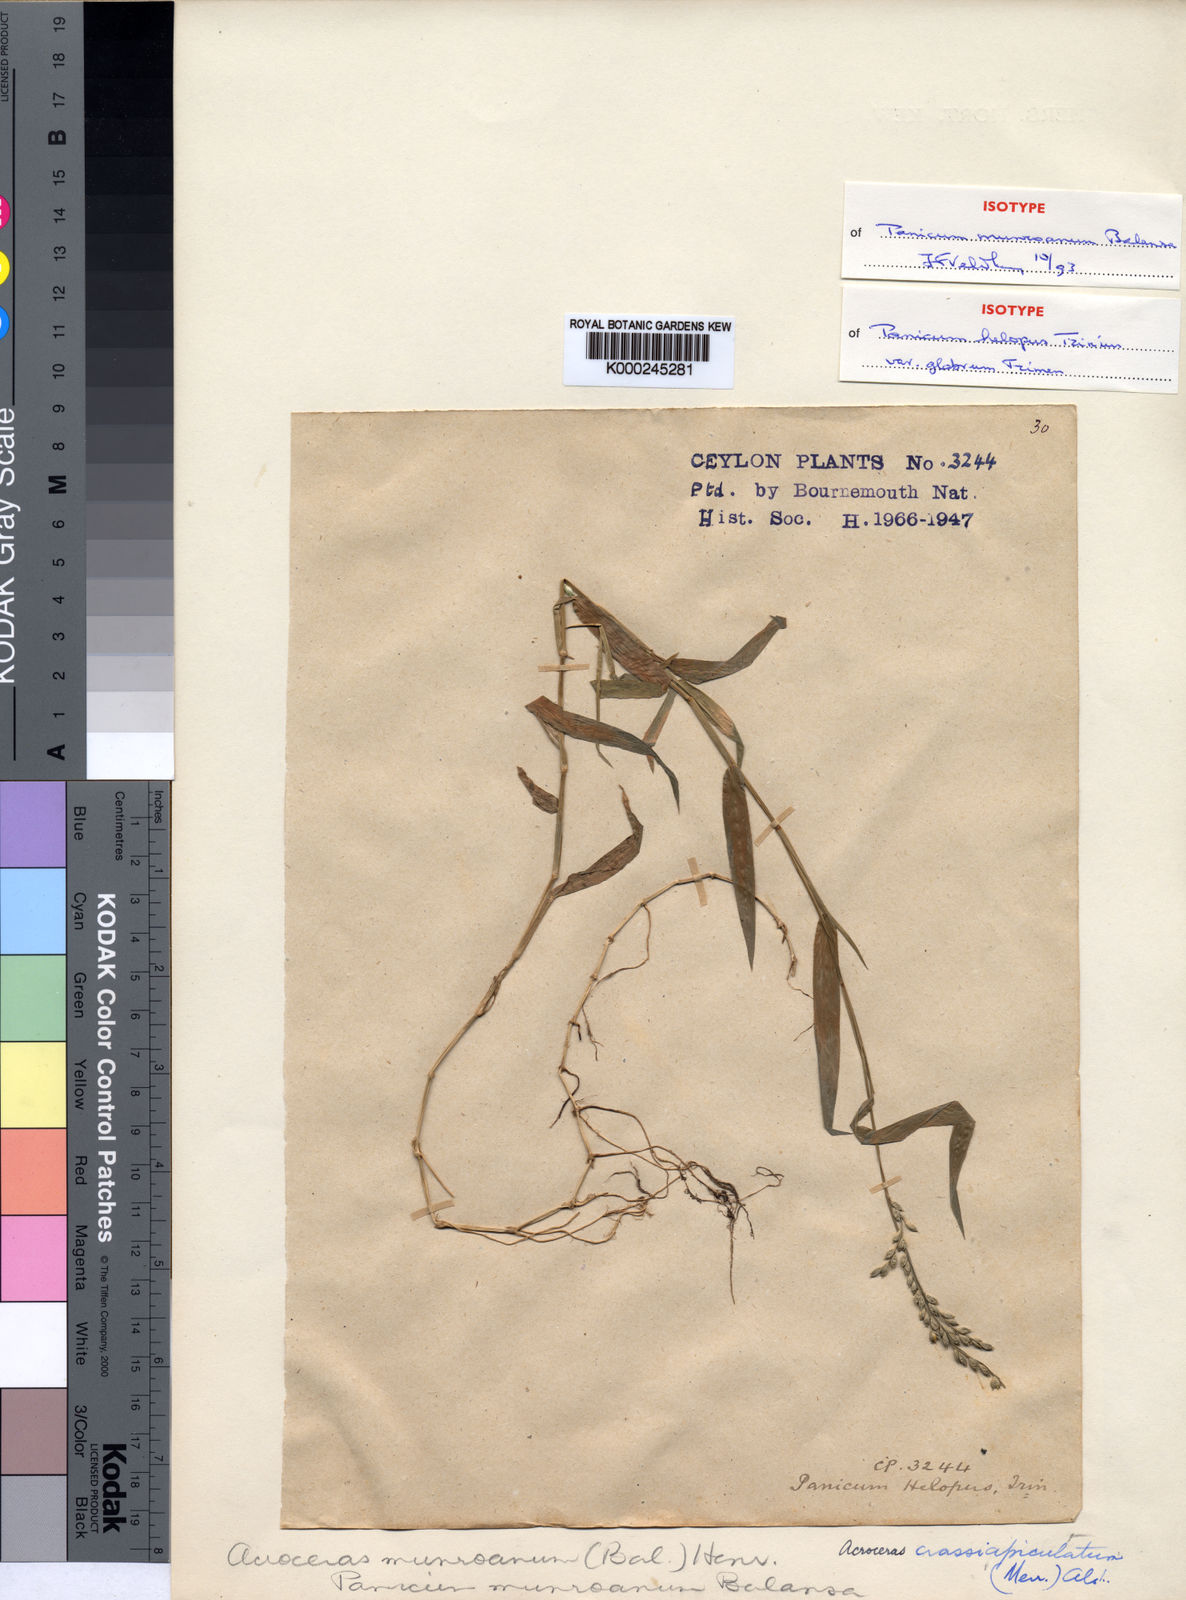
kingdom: Plantae
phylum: Tracheophyta
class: Liliopsida
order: Poales
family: Poaceae
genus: Acroceras
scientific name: Acroceras munroanum
